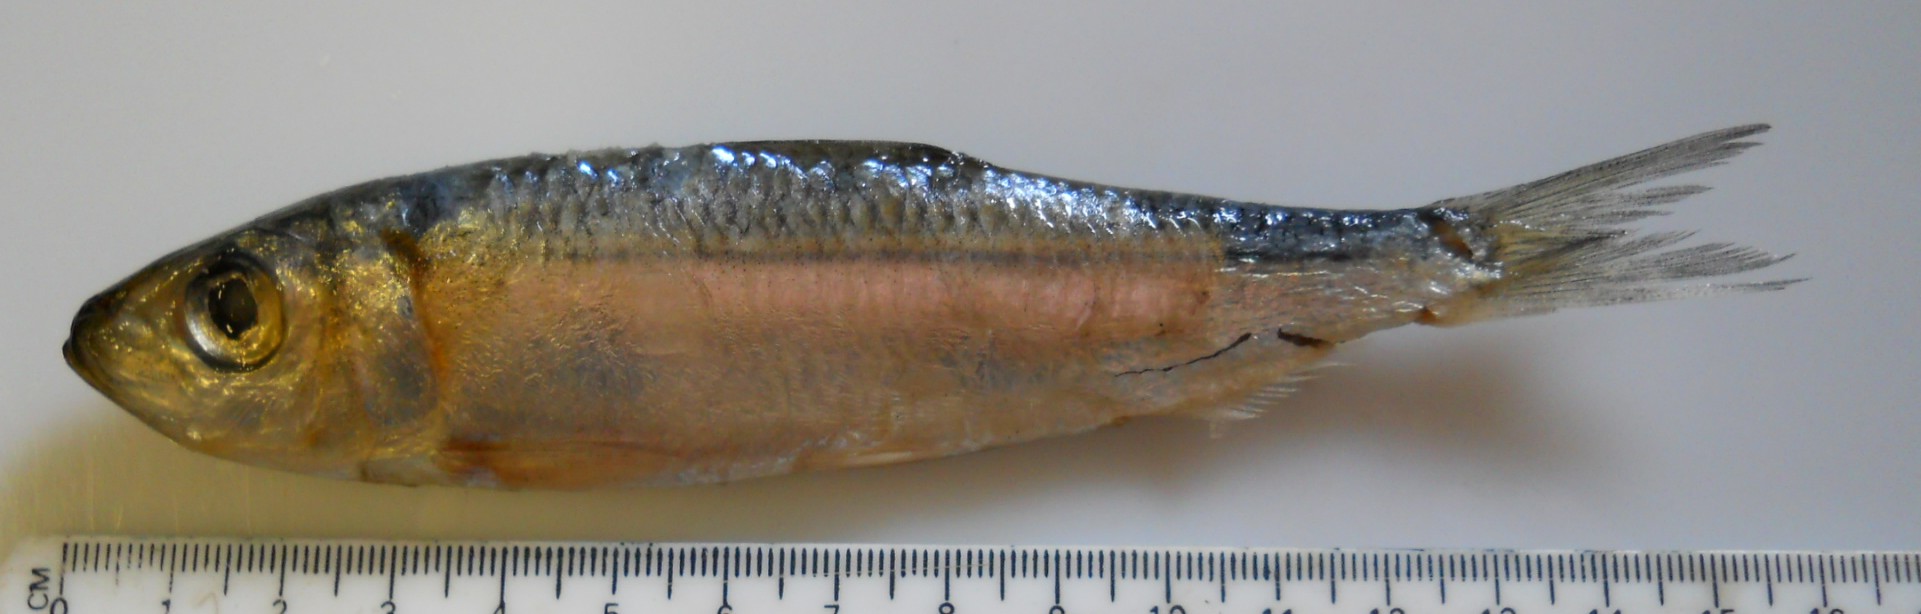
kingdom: Animalia
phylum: Chordata
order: Clupeiformes
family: Clupeidae
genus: Herklotsichthys
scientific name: Herklotsichthys quadrimaculatus
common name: Goldspot herring
